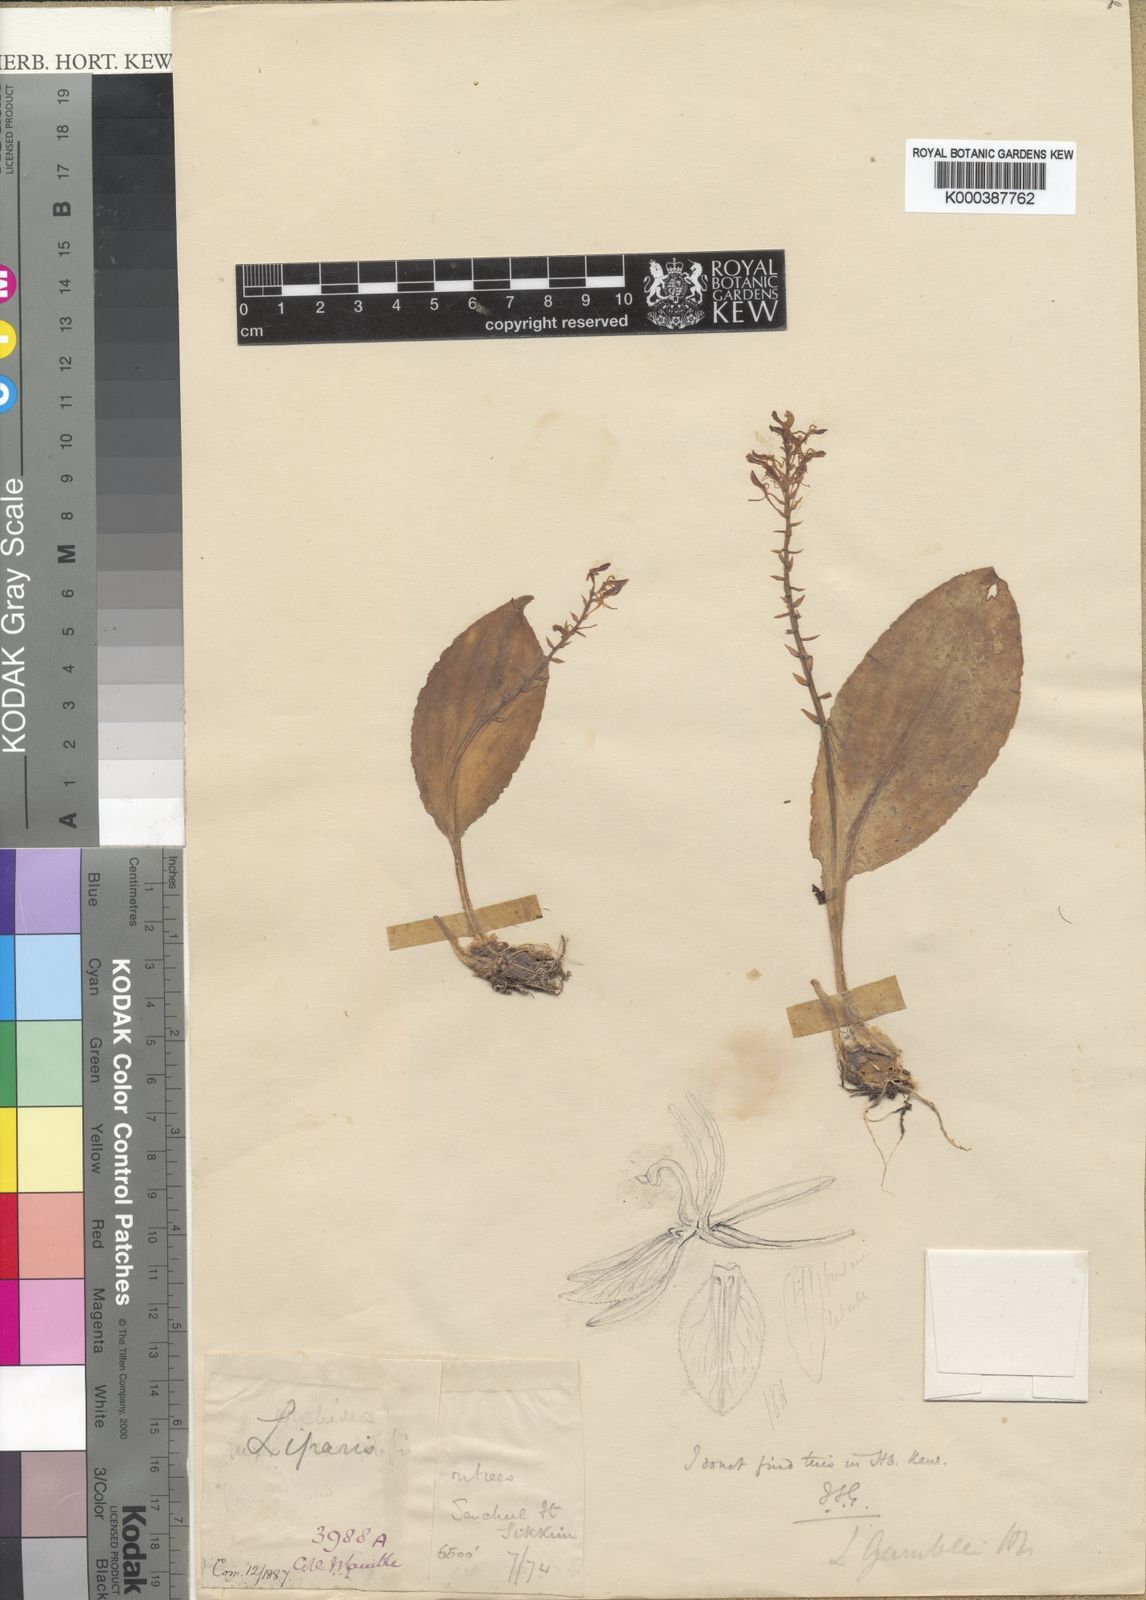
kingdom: Plantae
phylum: Tracheophyta
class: Liliopsida
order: Asparagales
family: Orchidaceae
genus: Liparis
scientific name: Liparis gamblei
